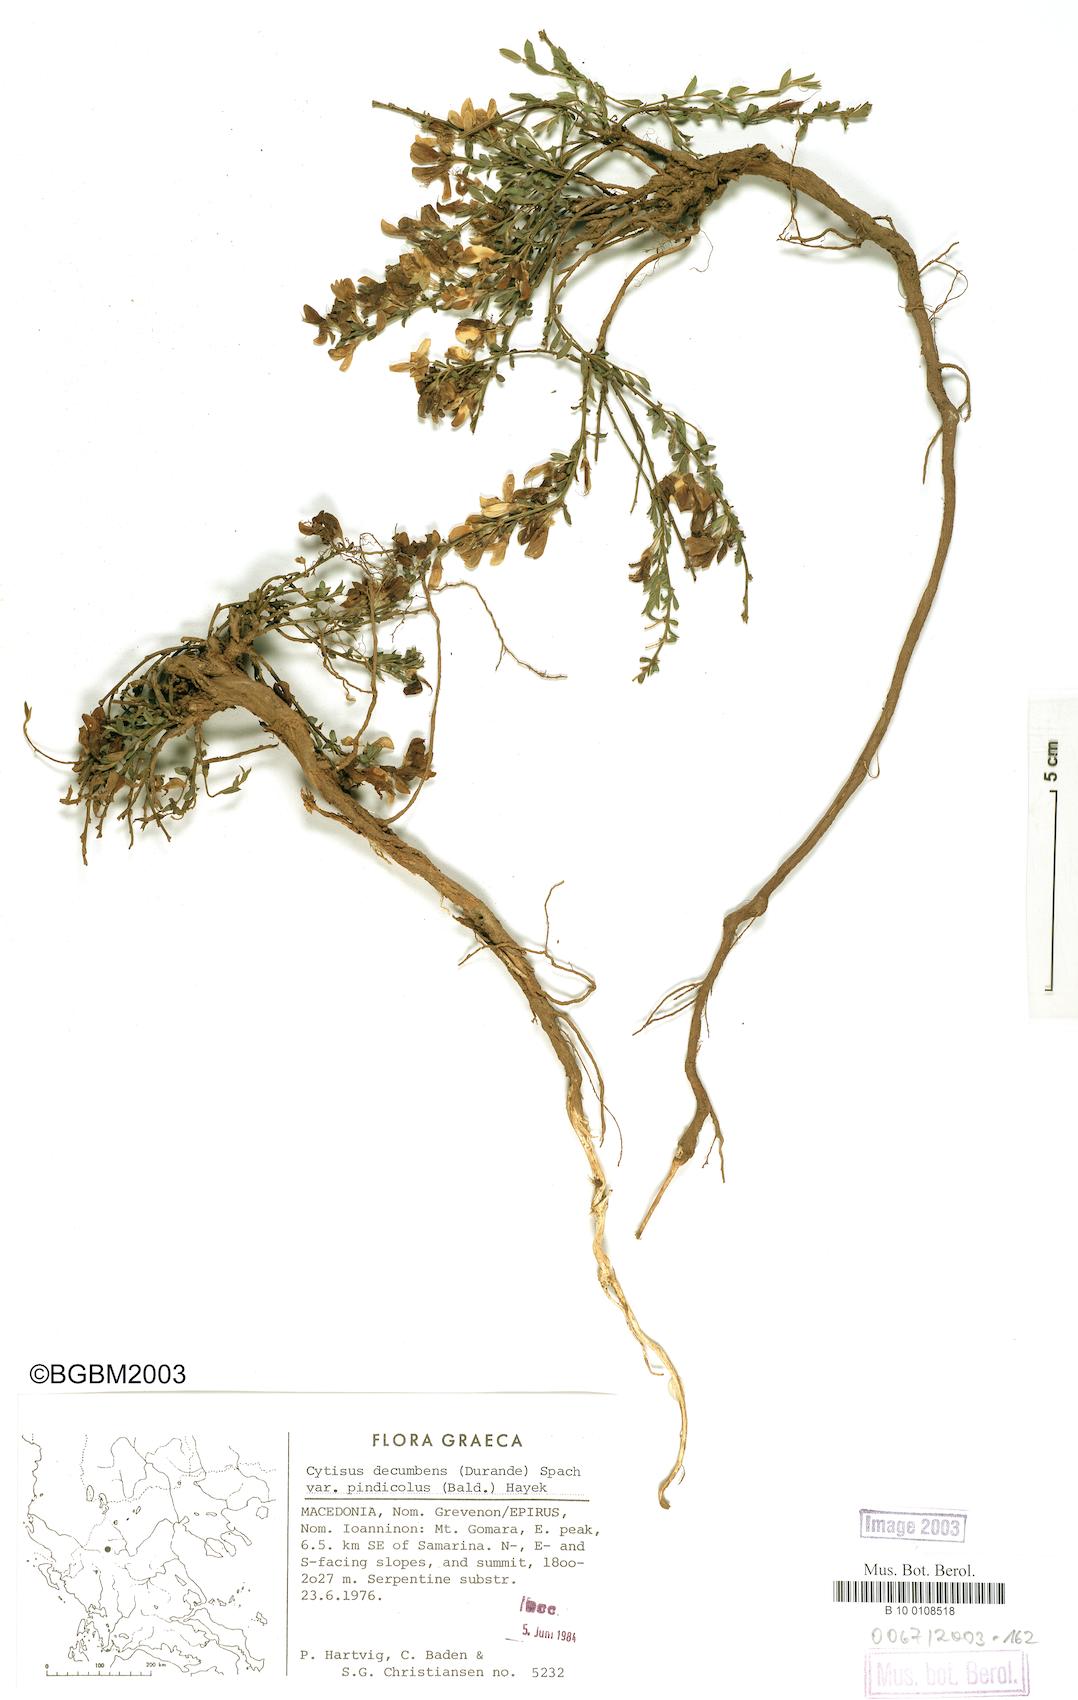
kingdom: Plantae
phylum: Tracheophyta
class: Magnoliopsida
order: Fabales
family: Fabaceae
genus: Cytisus
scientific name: Cytisus decumbens
